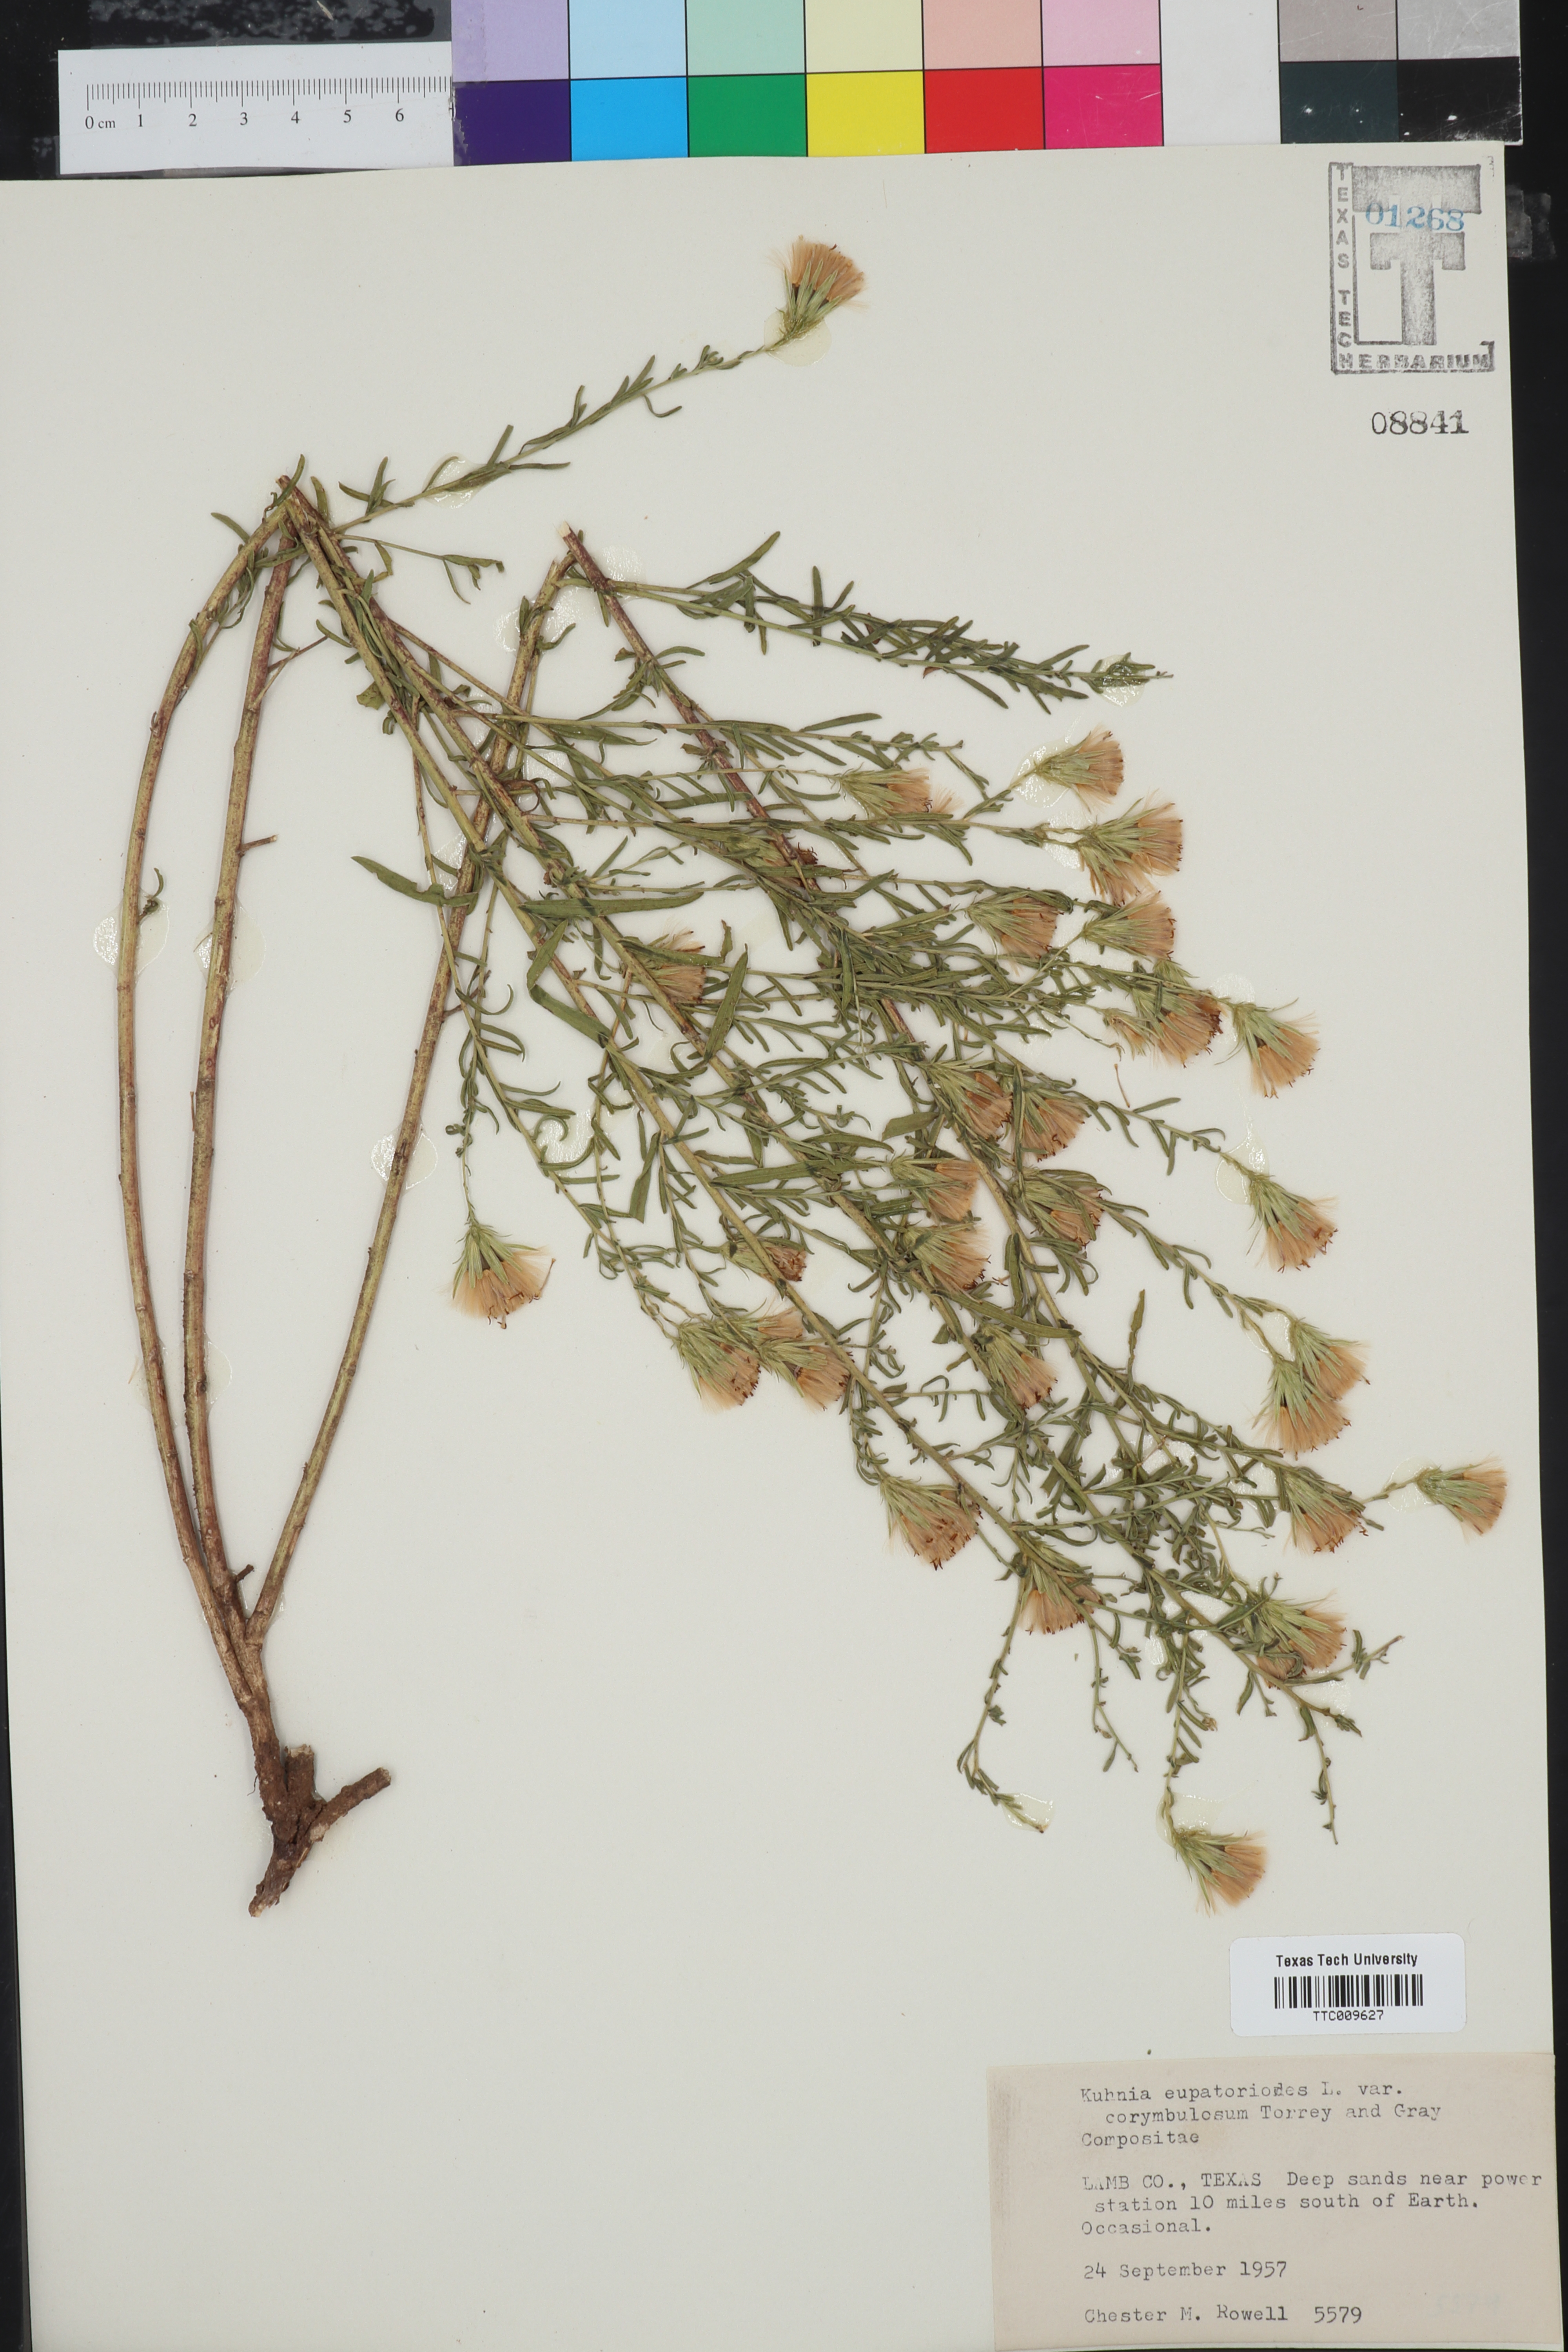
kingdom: Plantae
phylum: Tracheophyta
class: Magnoliopsida
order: Asterales
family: Asteraceae
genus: Brickellia
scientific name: Brickellia suaveolens
